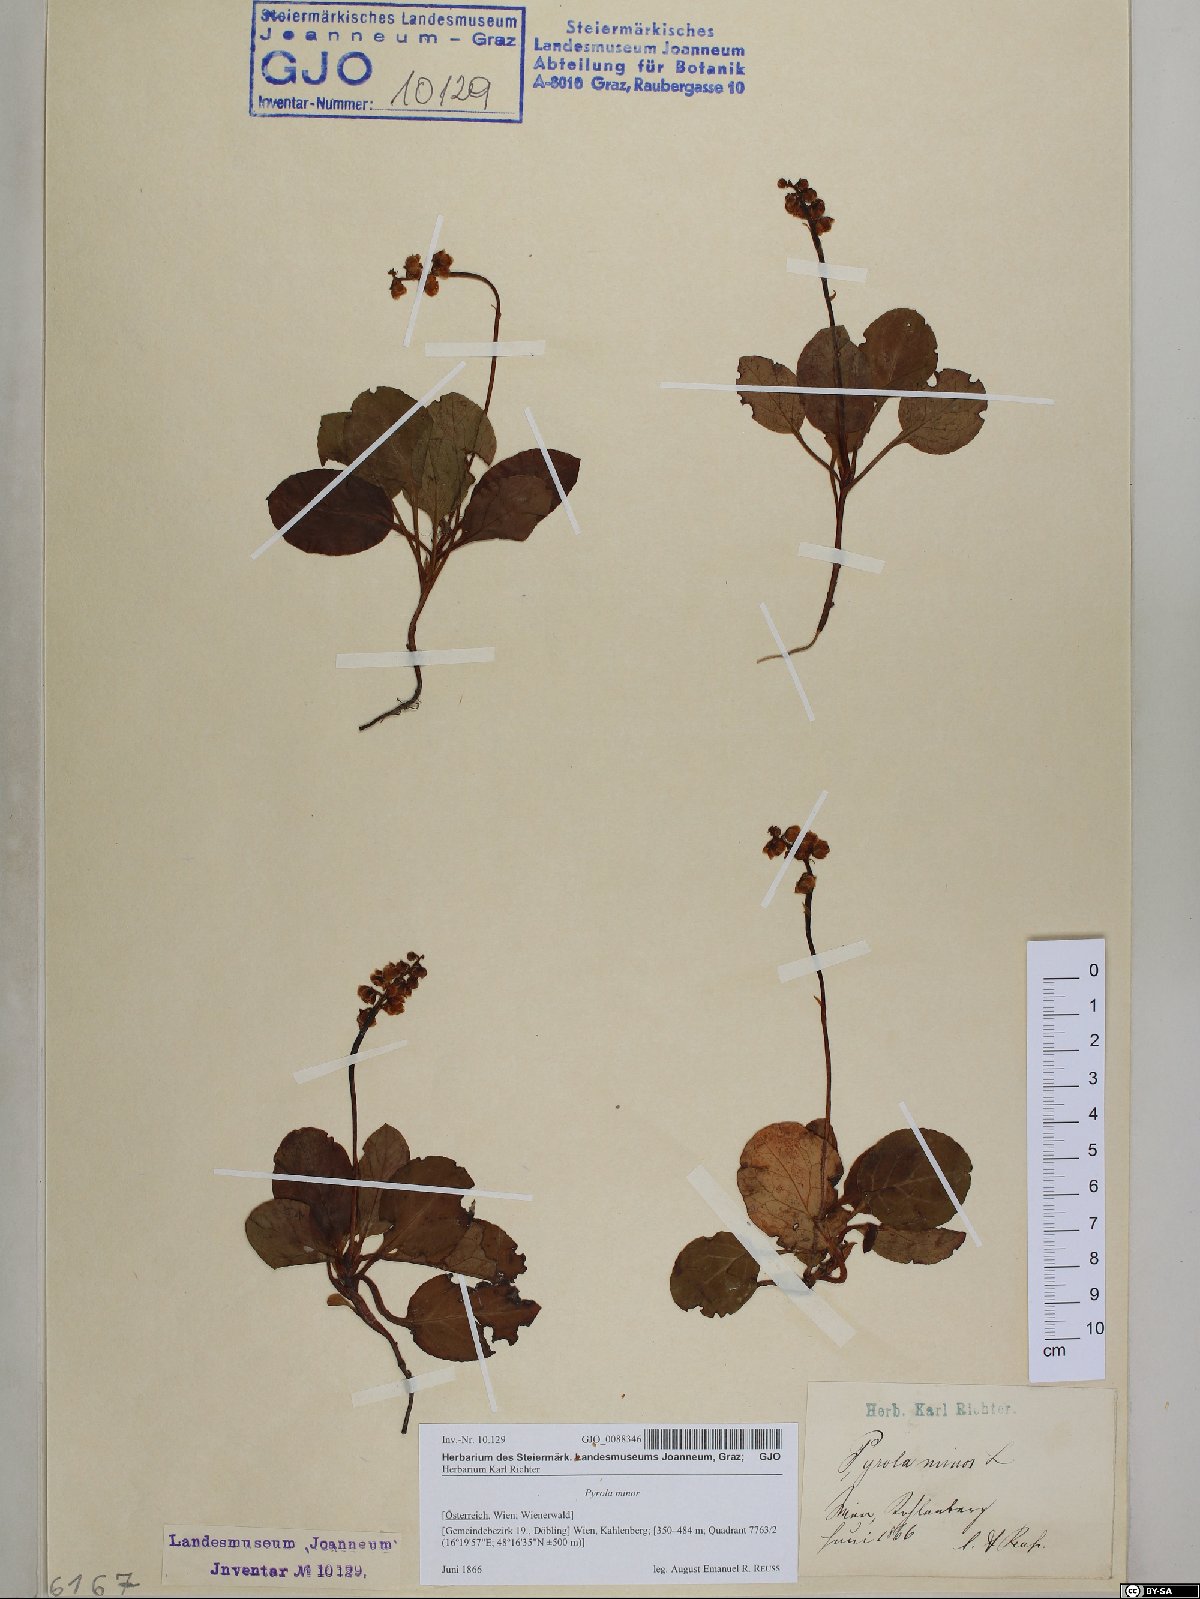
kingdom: Plantae
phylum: Tracheophyta
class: Magnoliopsida
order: Ericales
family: Ericaceae
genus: Pyrola
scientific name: Pyrola minor
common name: Common wintergreen
